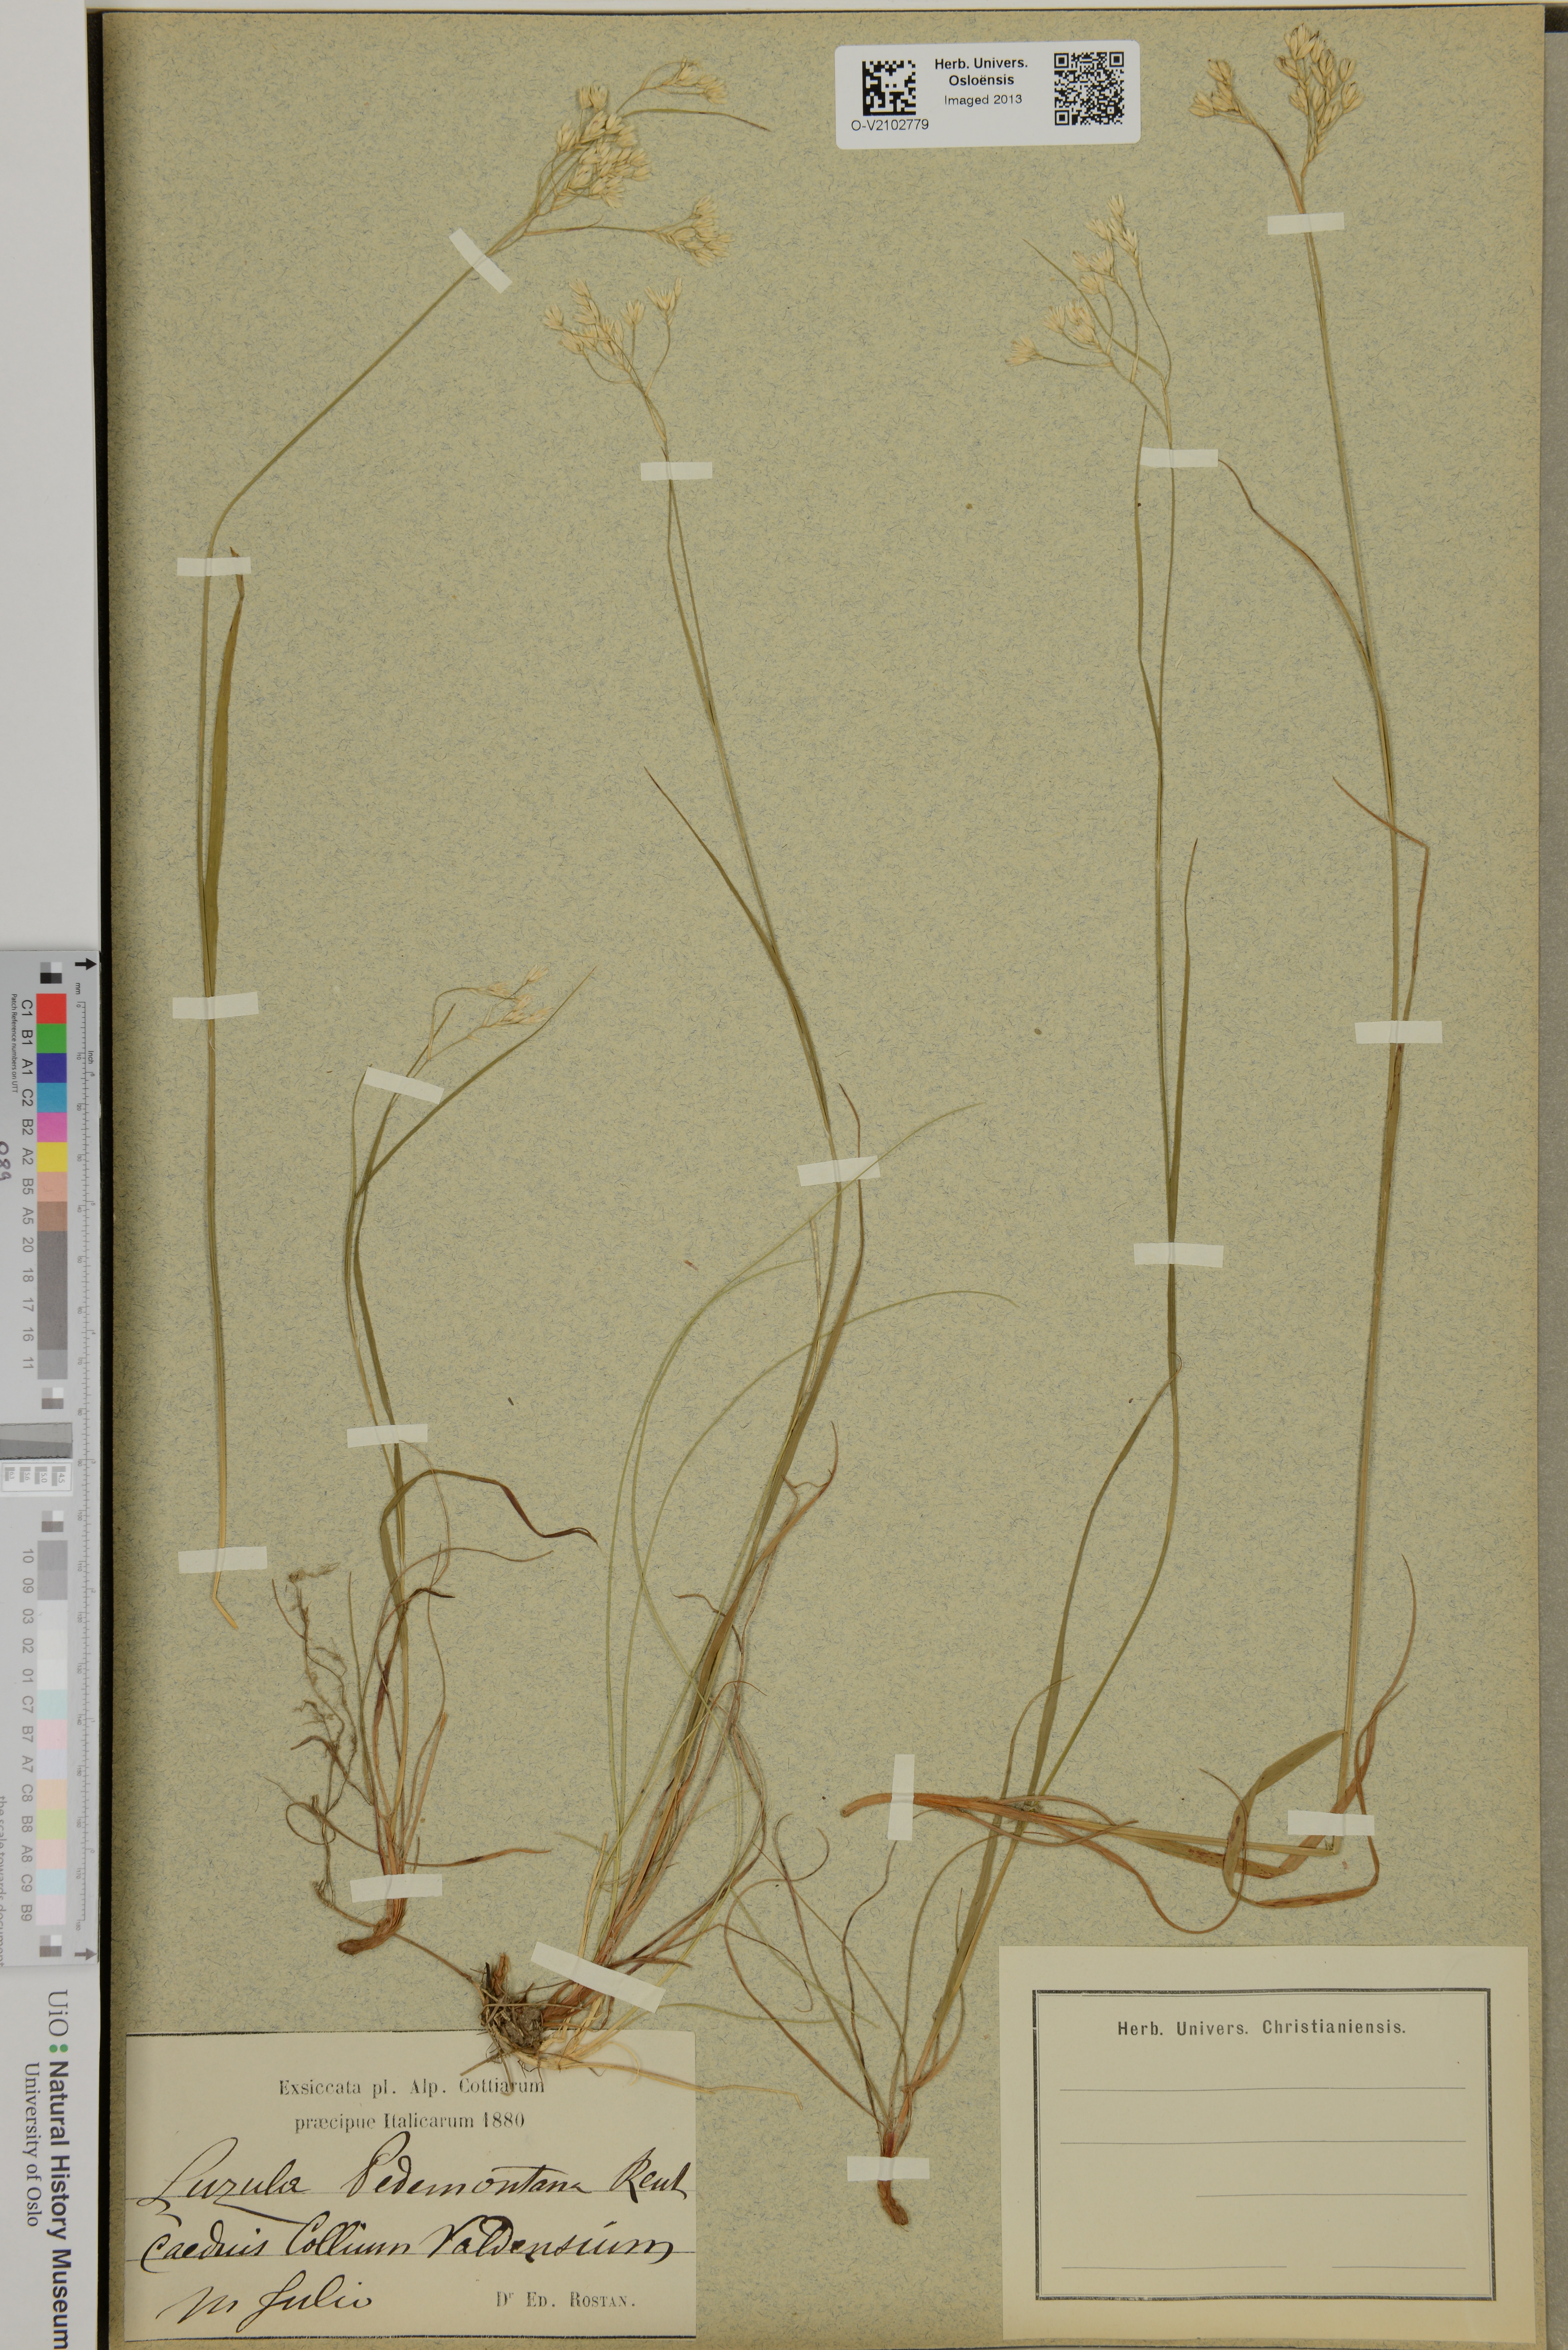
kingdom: Plantae
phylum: Tracheophyta
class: Liliopsida
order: Poales
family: Juncaceae
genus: Luzula
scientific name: Luzula pedemontana
